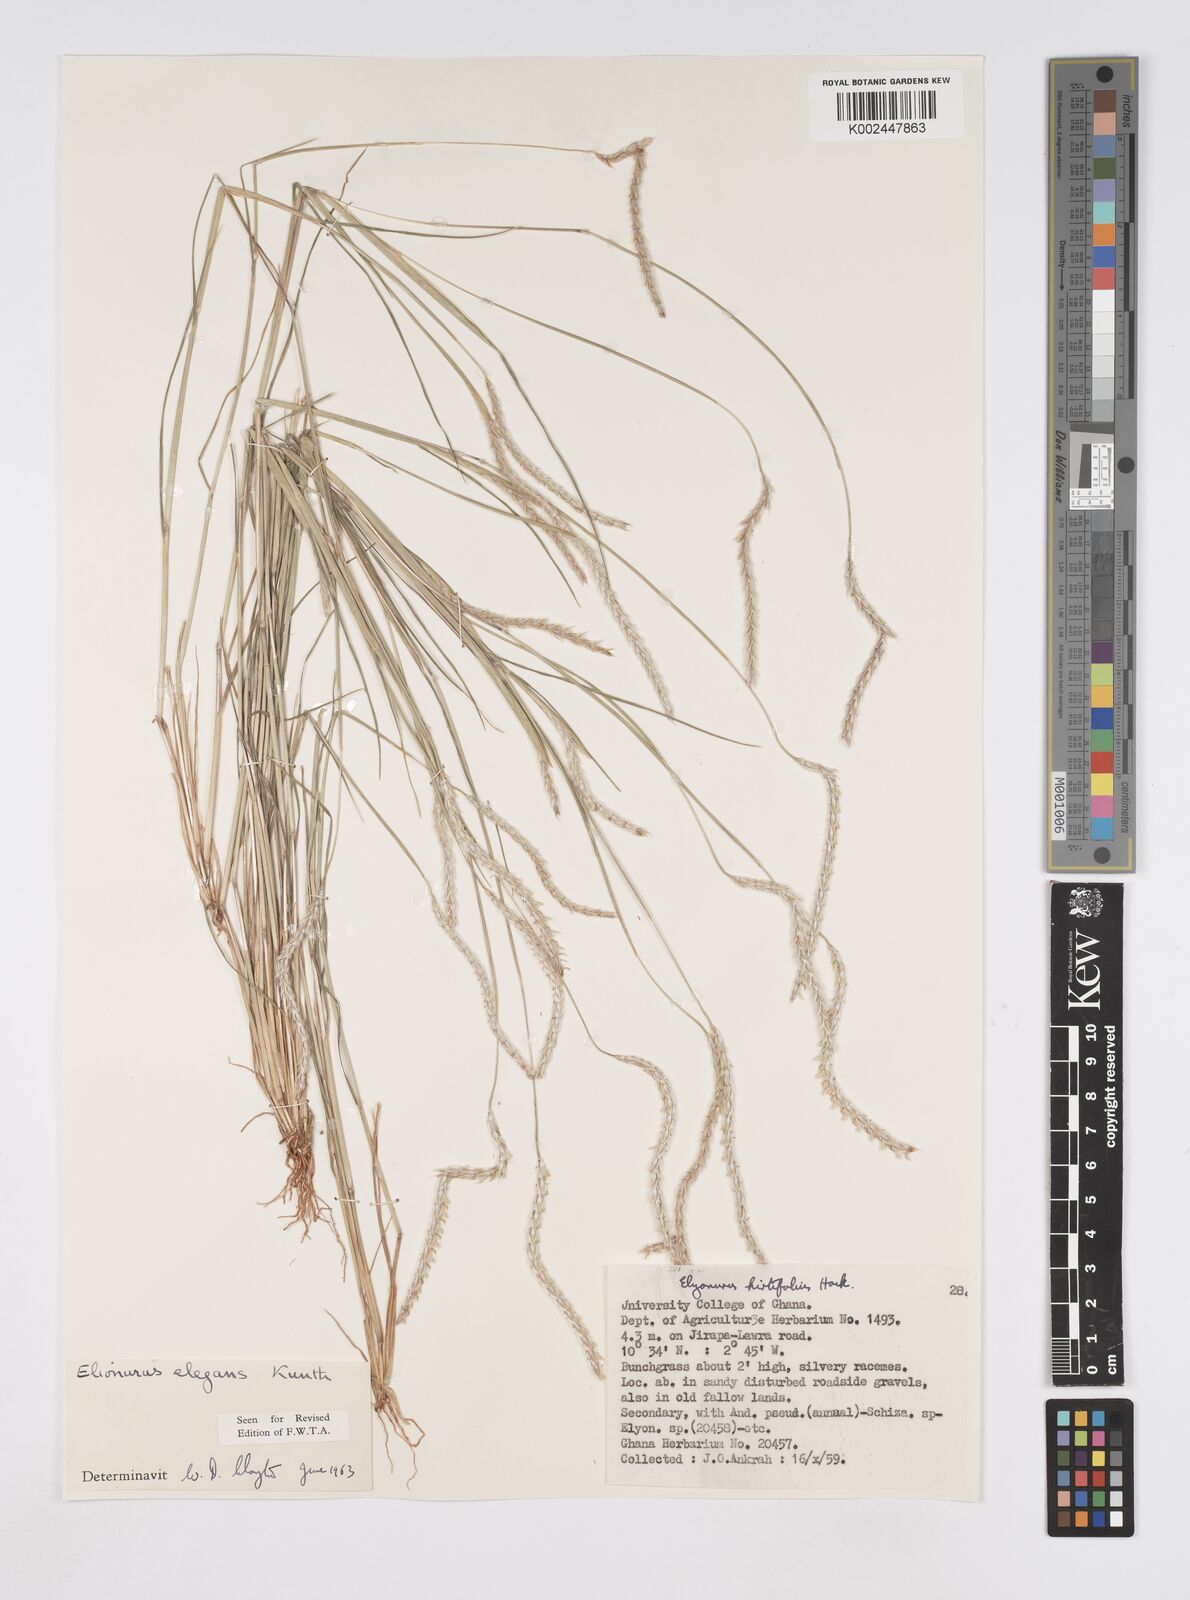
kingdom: Plantae
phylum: Tracheophyta
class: Liliopsida
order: Poales
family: Poaceae
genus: Elionurus
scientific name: Elionurus elegans
